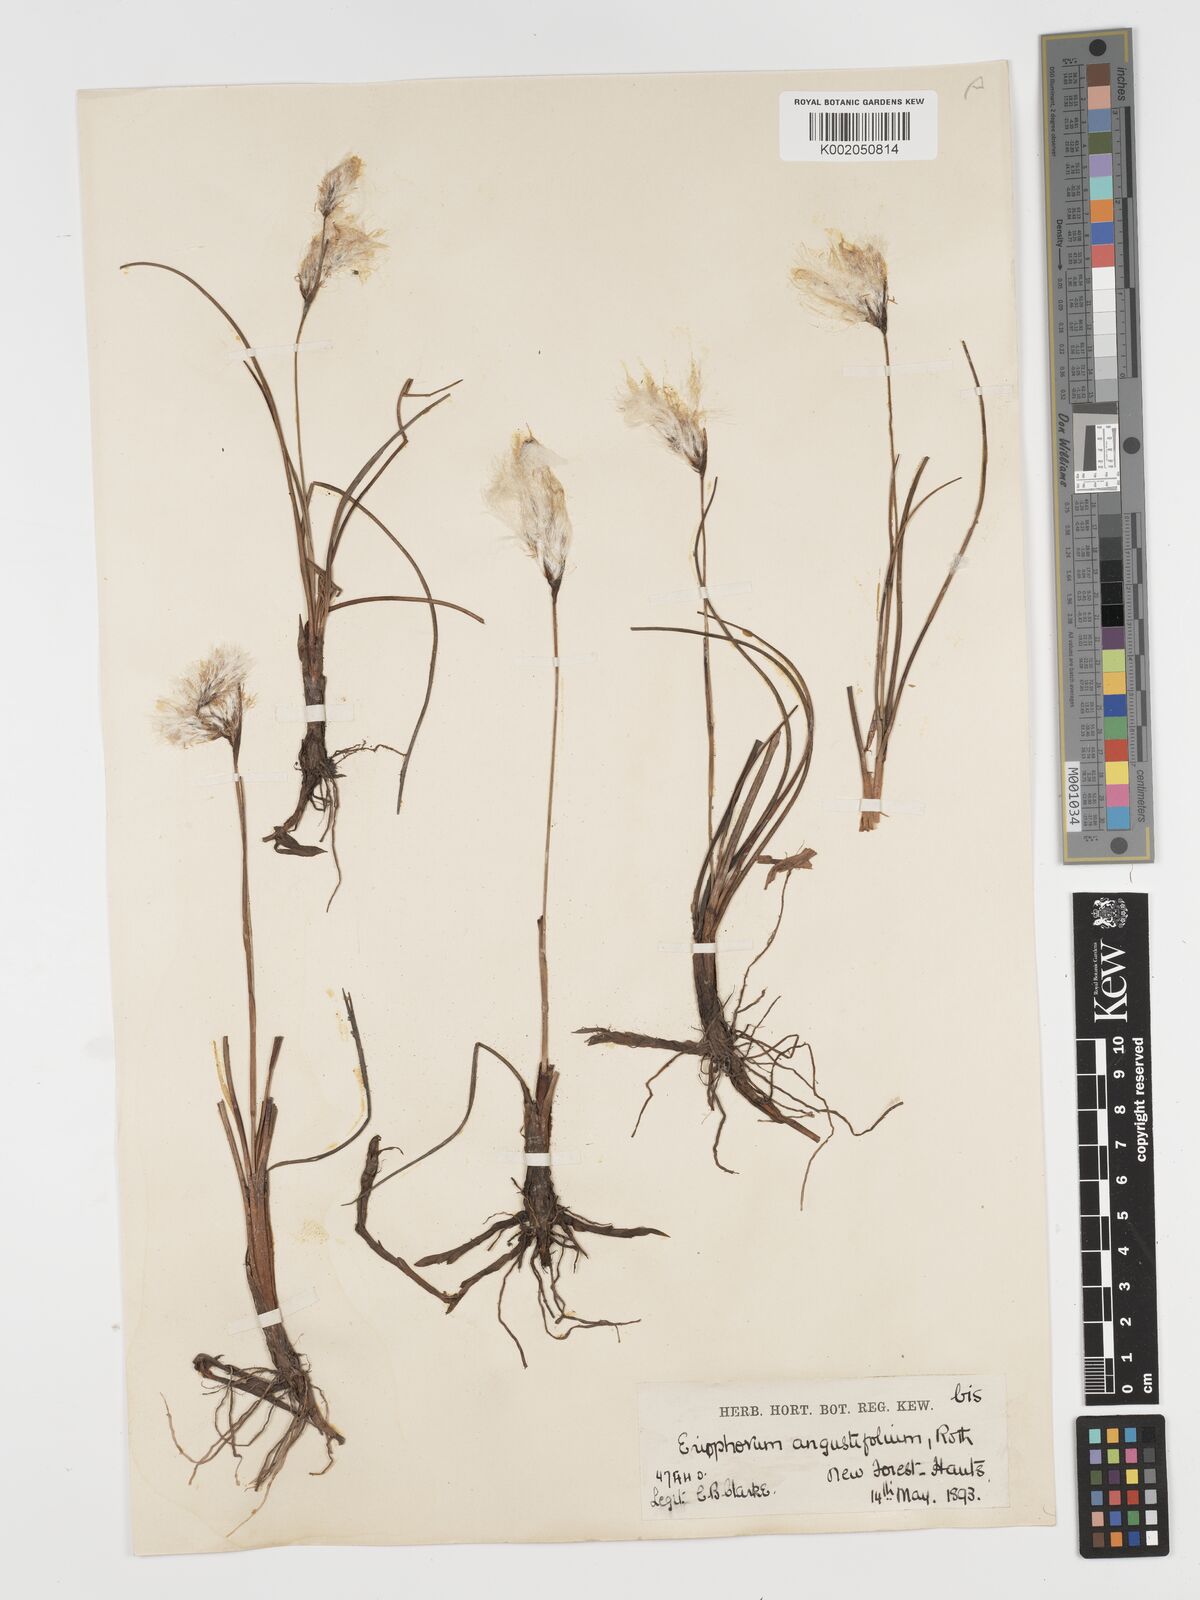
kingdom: Plantae
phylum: Tracheophyta
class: Liliopsida
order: Poales
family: Cyperaceae
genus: Eriophorum
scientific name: Eriophorum angustifolium
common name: Common cottongrass
